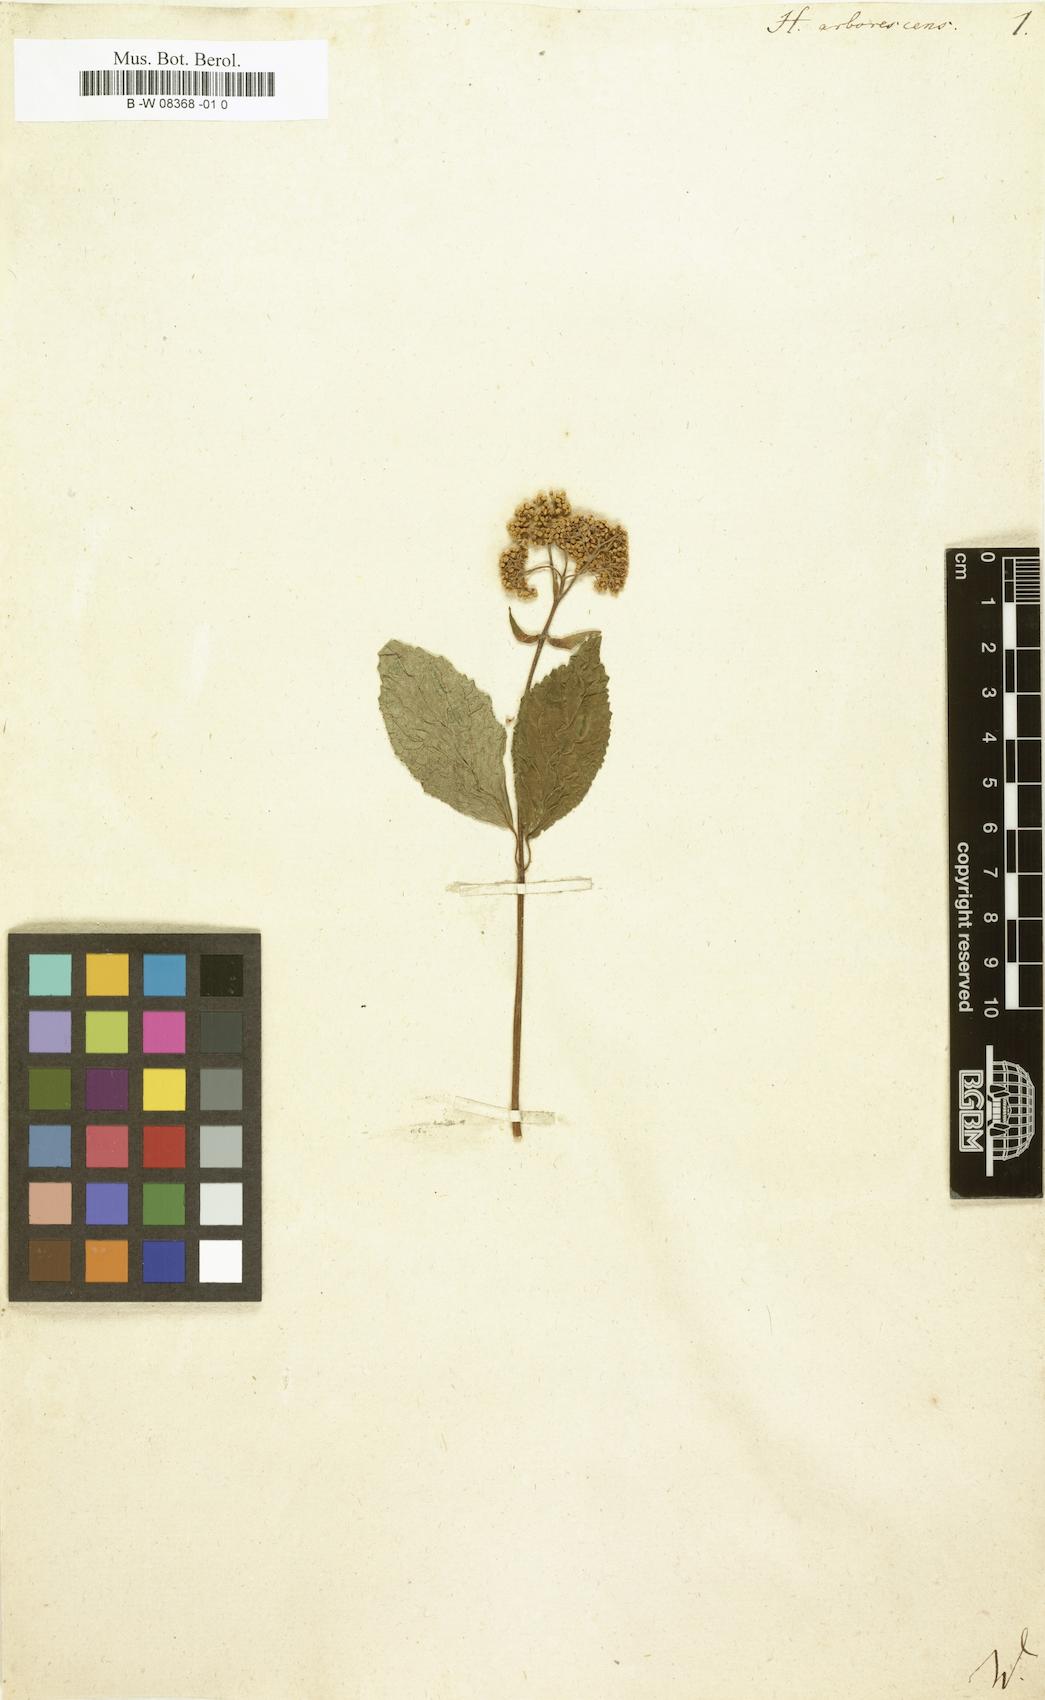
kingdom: Plantae
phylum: Tracheophyta
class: Magnoliopsida
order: Cornales
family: Hydrangeaceae
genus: Hydrangea
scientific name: Hydrangea arborescens
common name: Sevenbark
